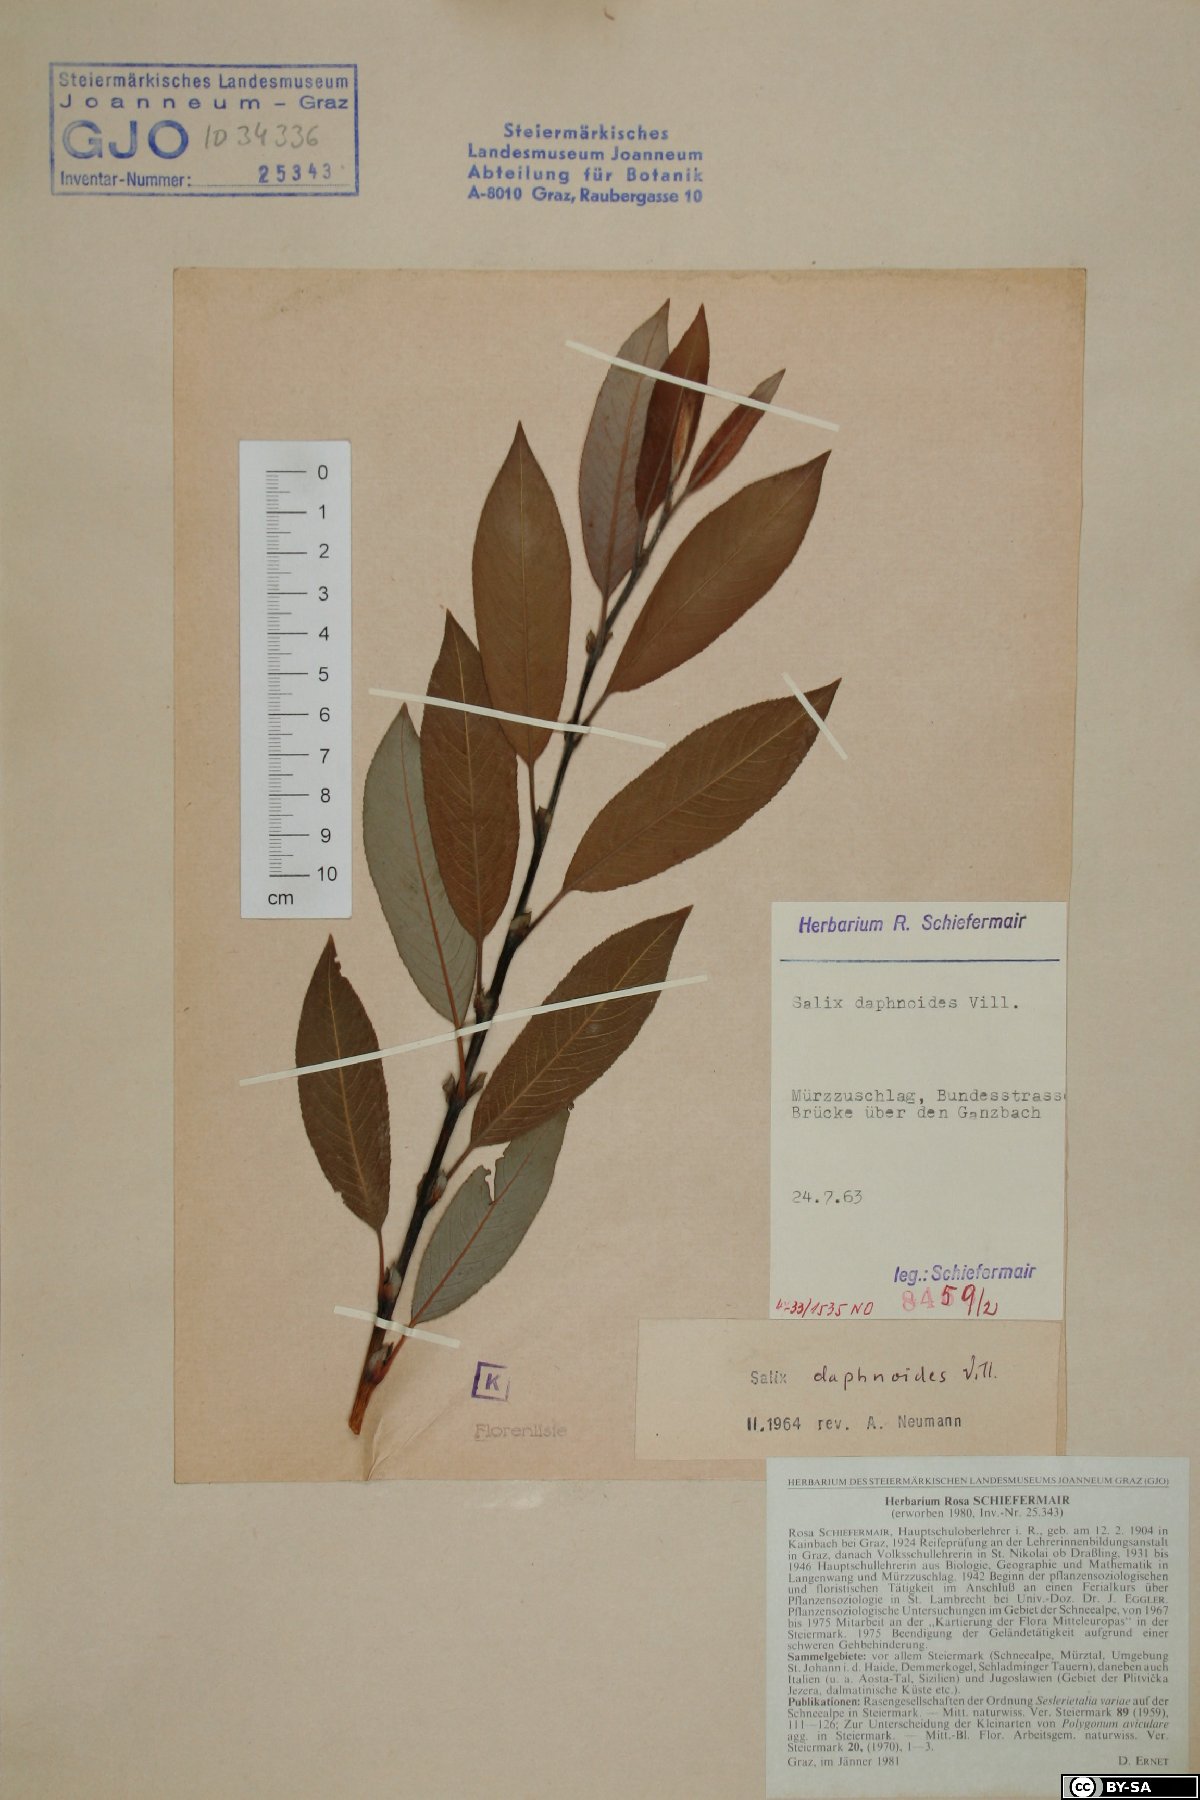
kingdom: Plantae
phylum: Tracheophyta
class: Magnoliopsida
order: Malpighiales
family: Salicaceae
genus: Salix
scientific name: Salix daphnoides
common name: European violet-willow
